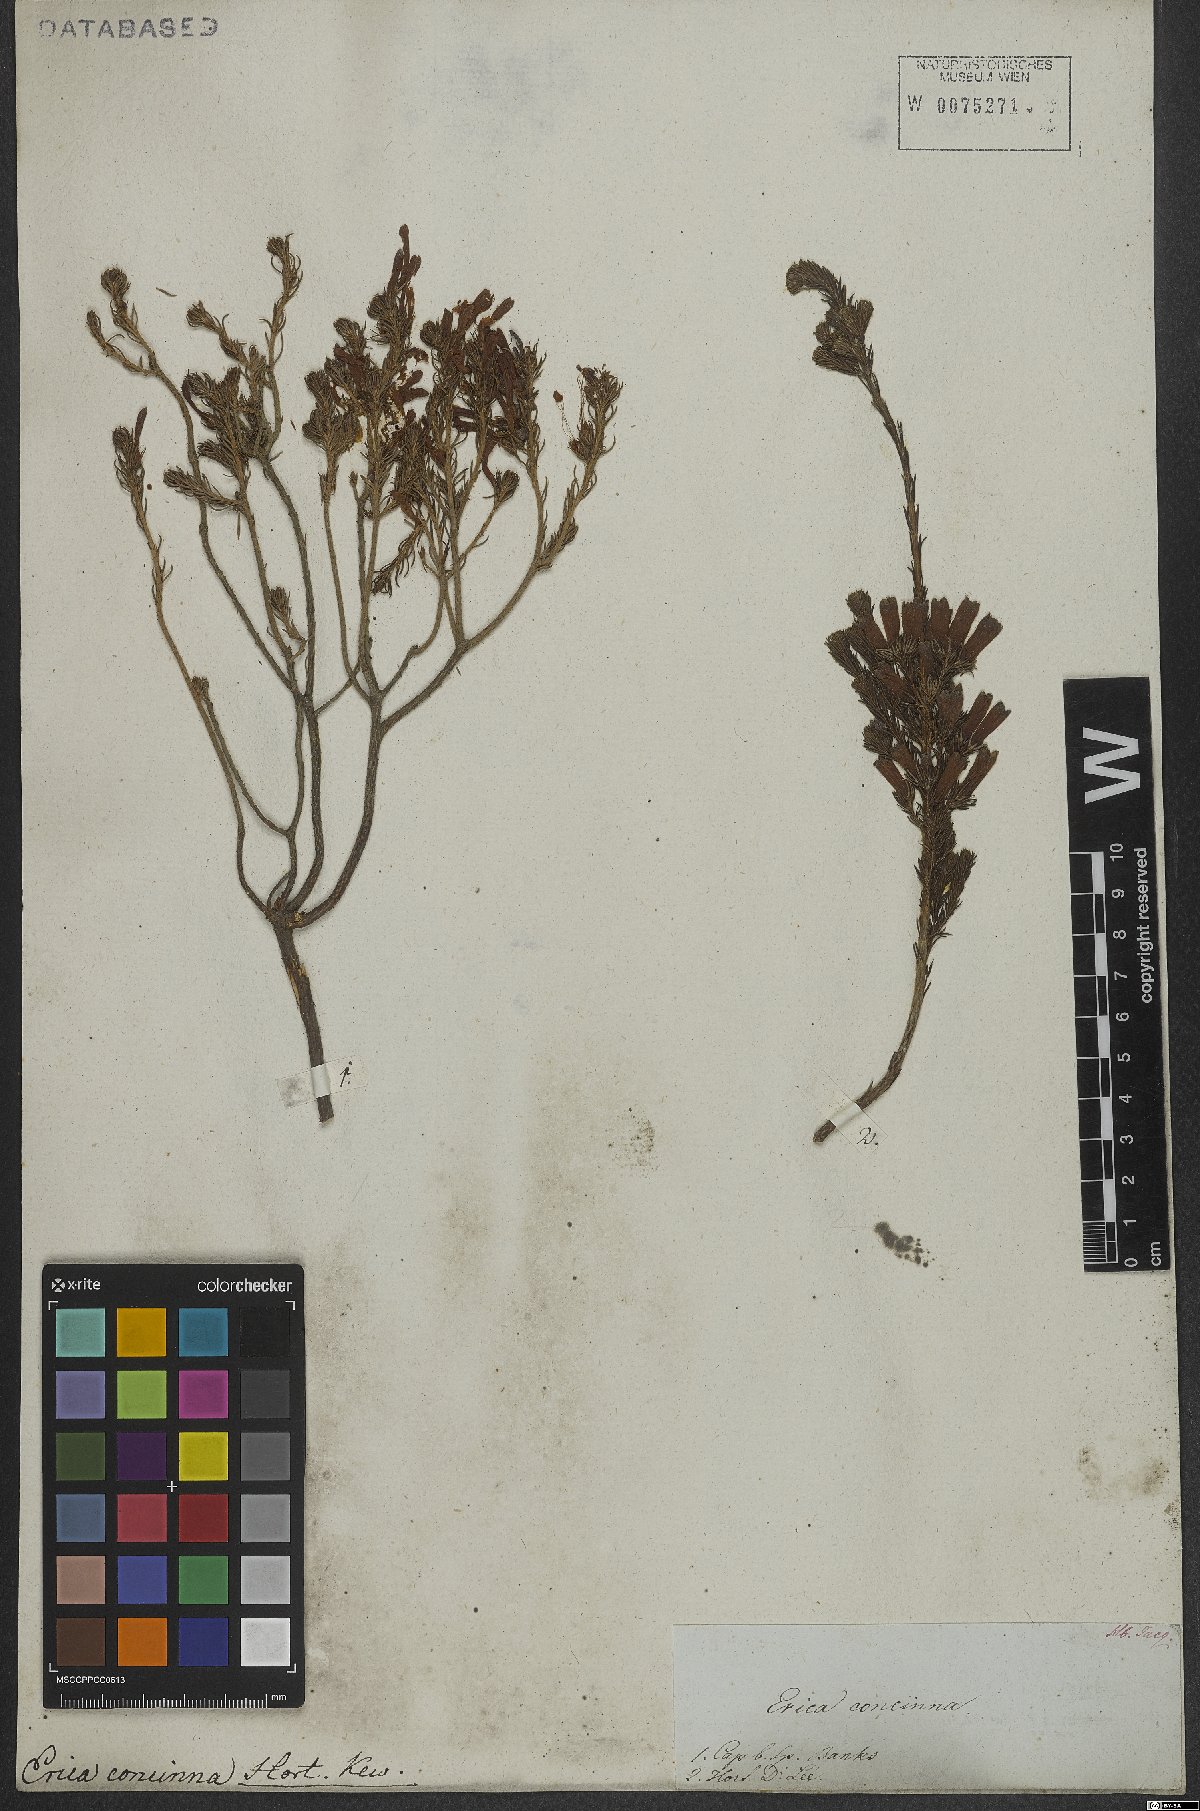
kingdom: Plantae
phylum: Tracheophyta
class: Magnoliopsida
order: Ericales
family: Ericaceae
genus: Erica
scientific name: Erica verticillata
